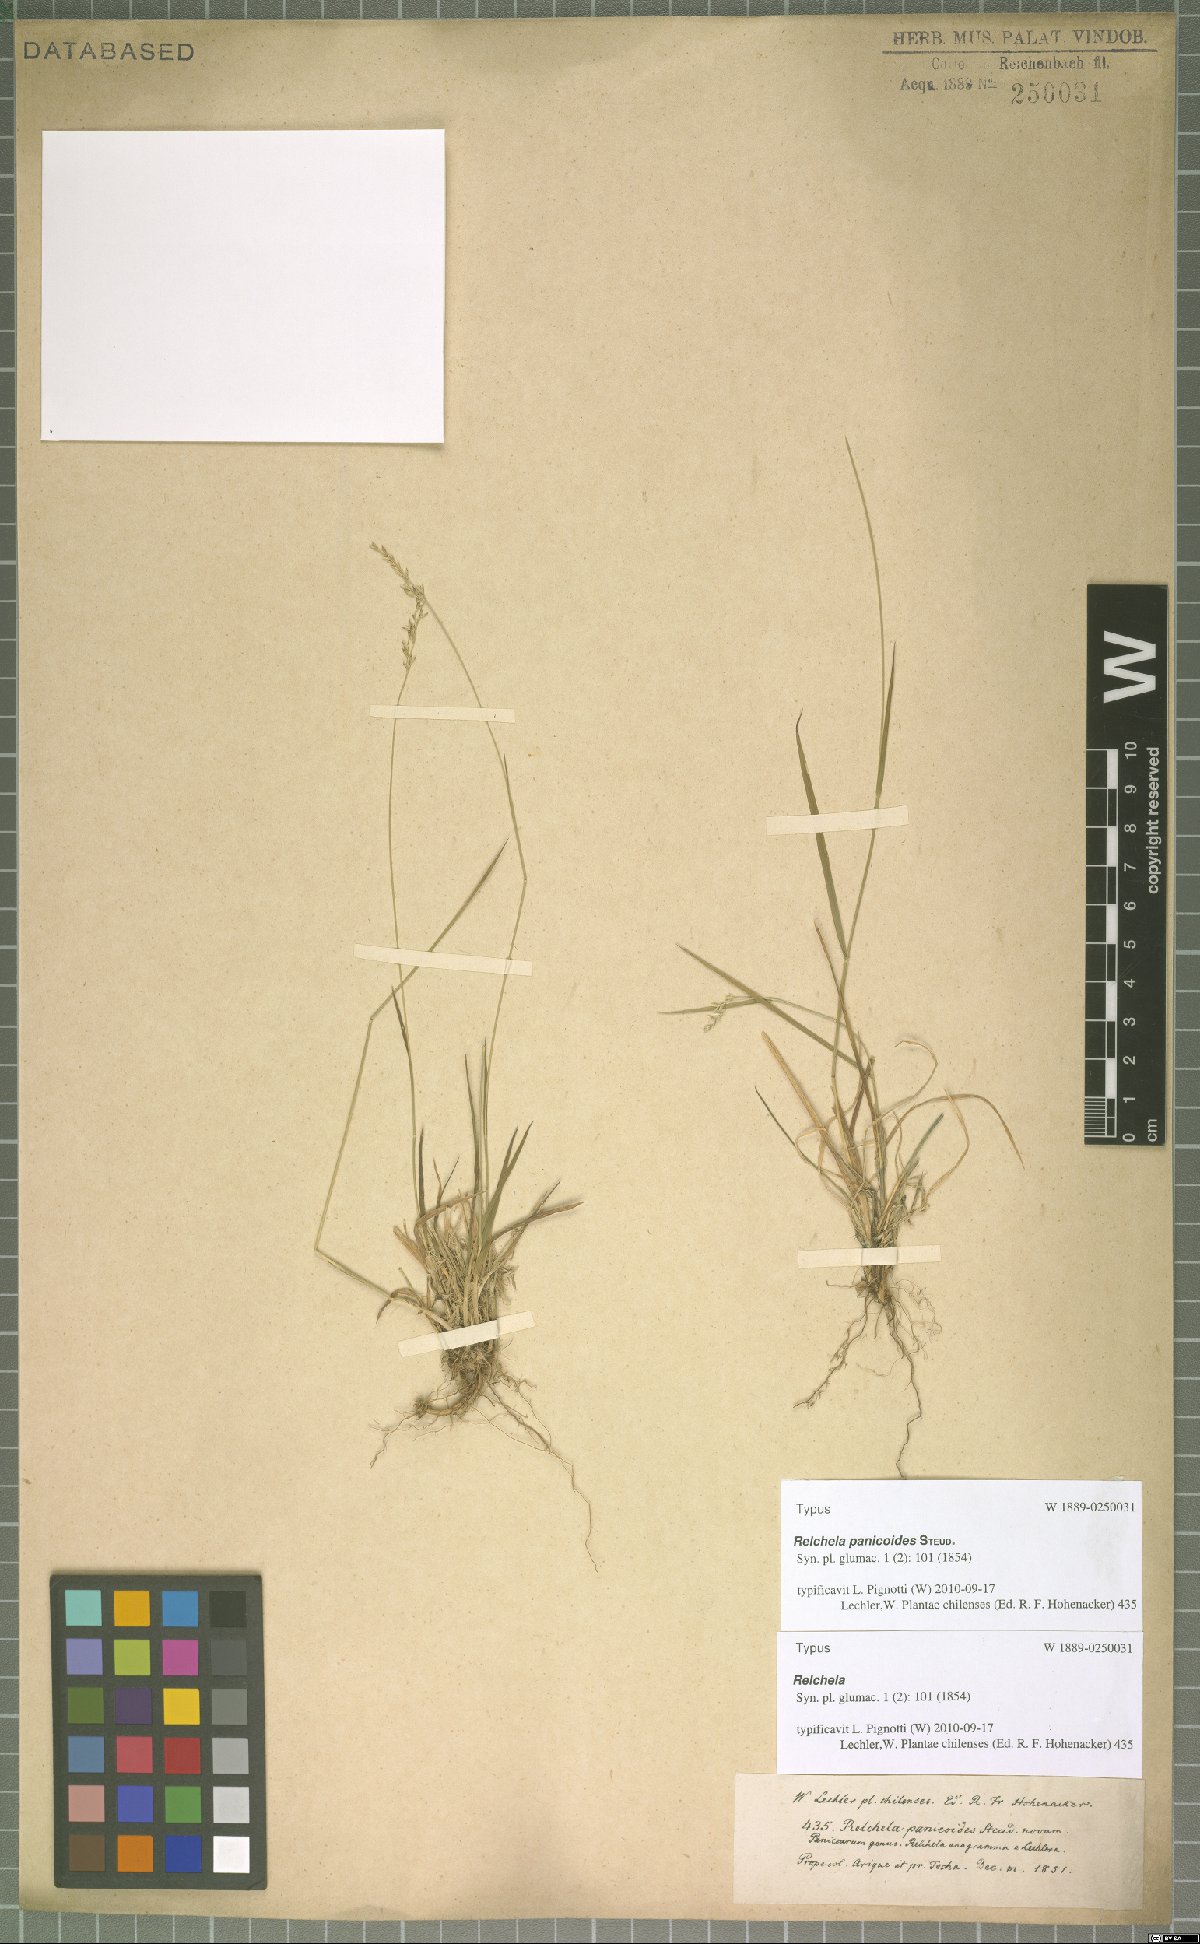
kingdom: Plantae
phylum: Tracheophyta
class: Liliopsida
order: Poales
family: Poaceae
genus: Relchela
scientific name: Relchela panicoides
